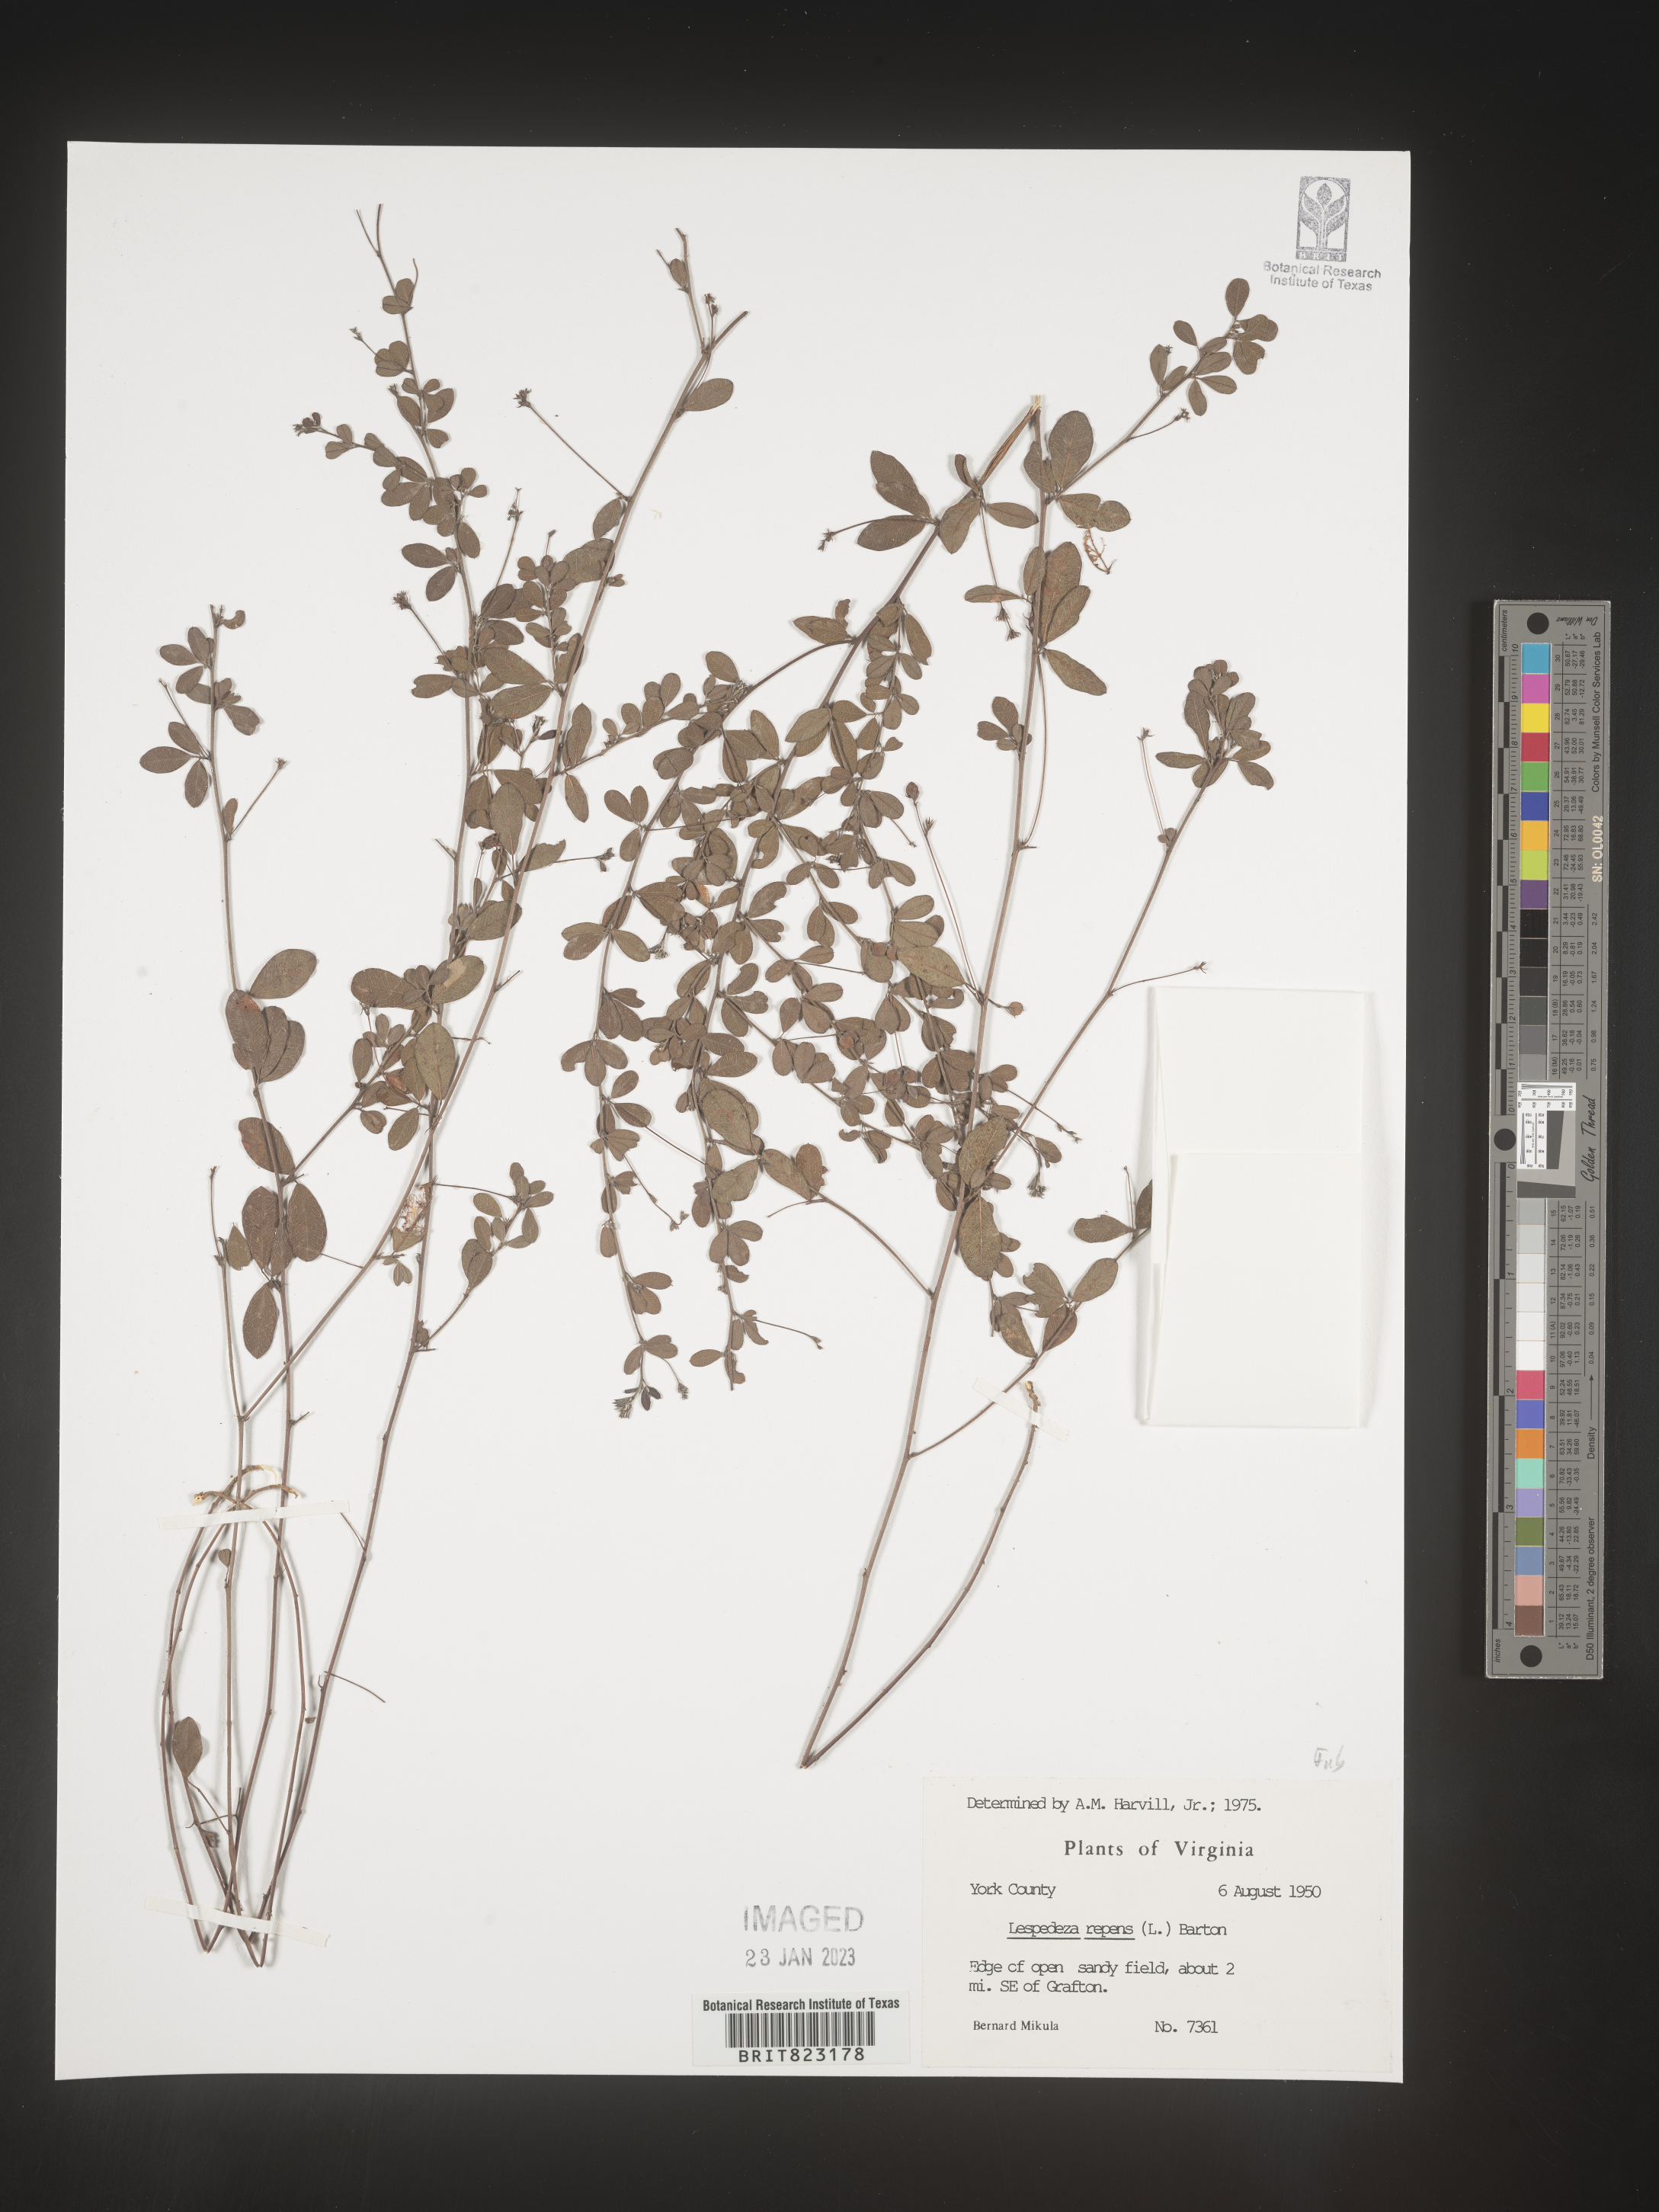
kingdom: Plantae
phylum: Tracheophyta
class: Magnoliopsida
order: Fabales
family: Fabaceae
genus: Lespedeza
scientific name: Lespedeza repens
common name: Creeping bush-clover
